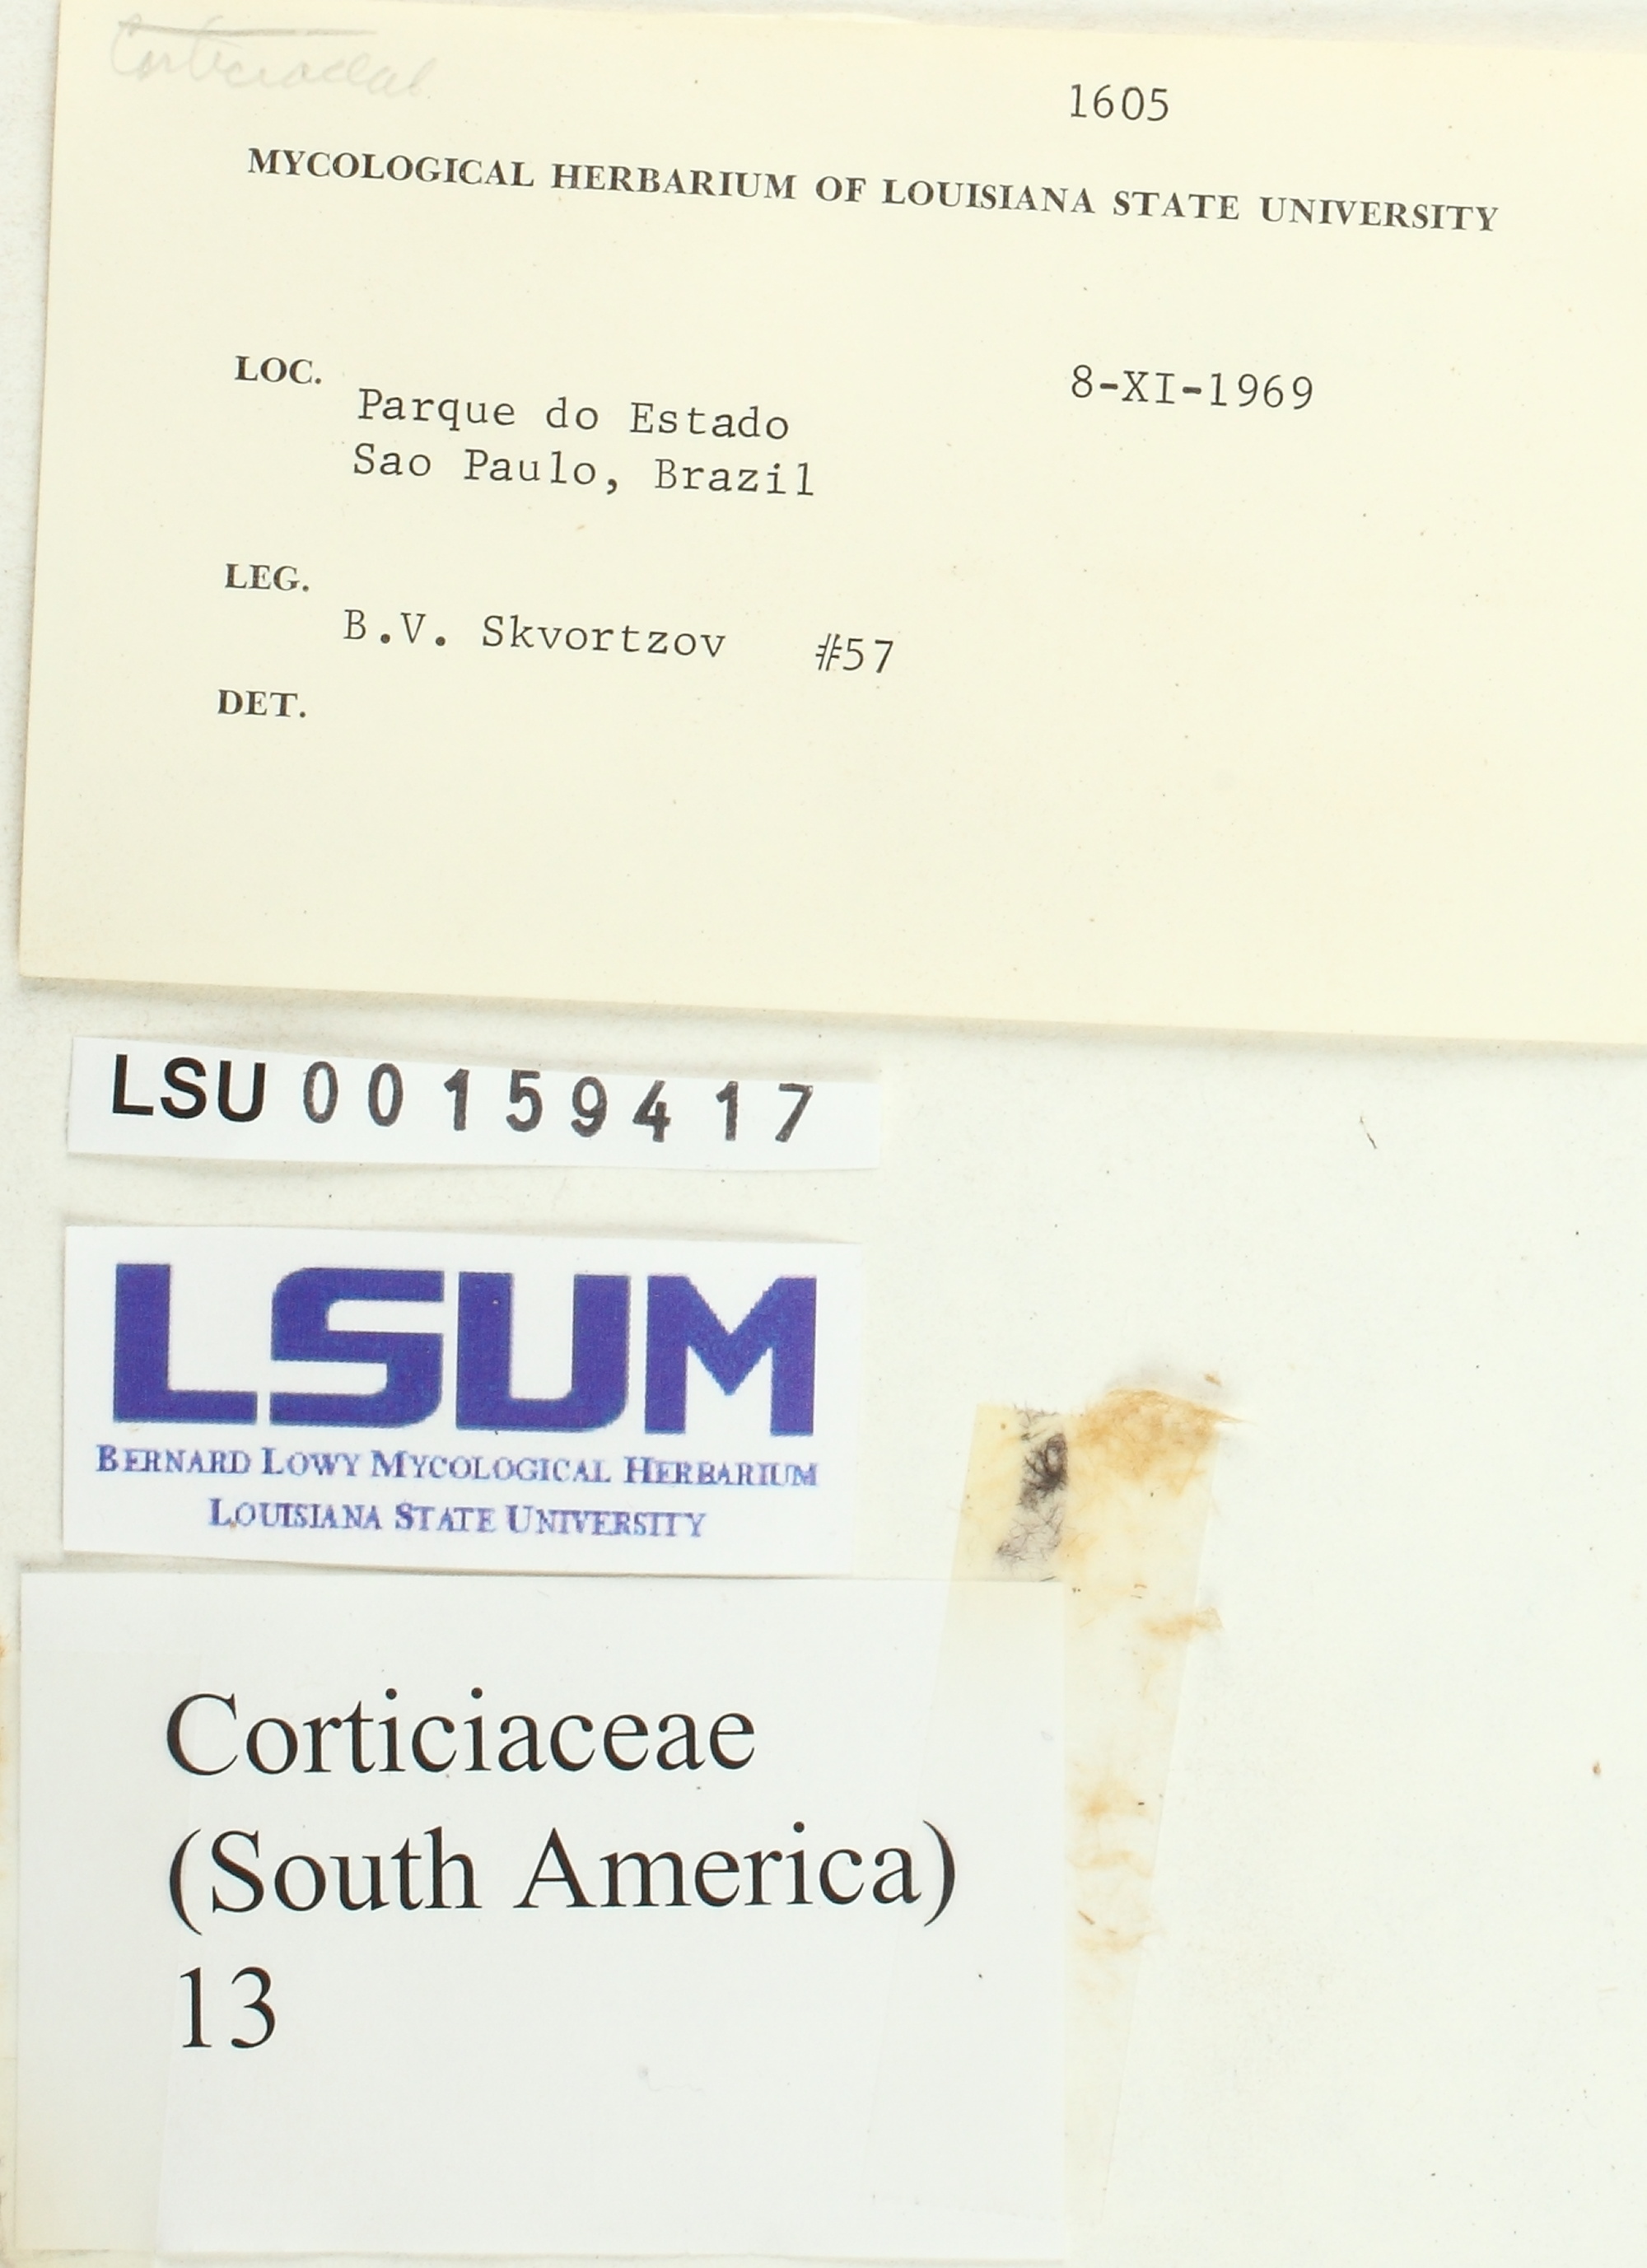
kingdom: Fungi
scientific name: Fungi
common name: Fungi
